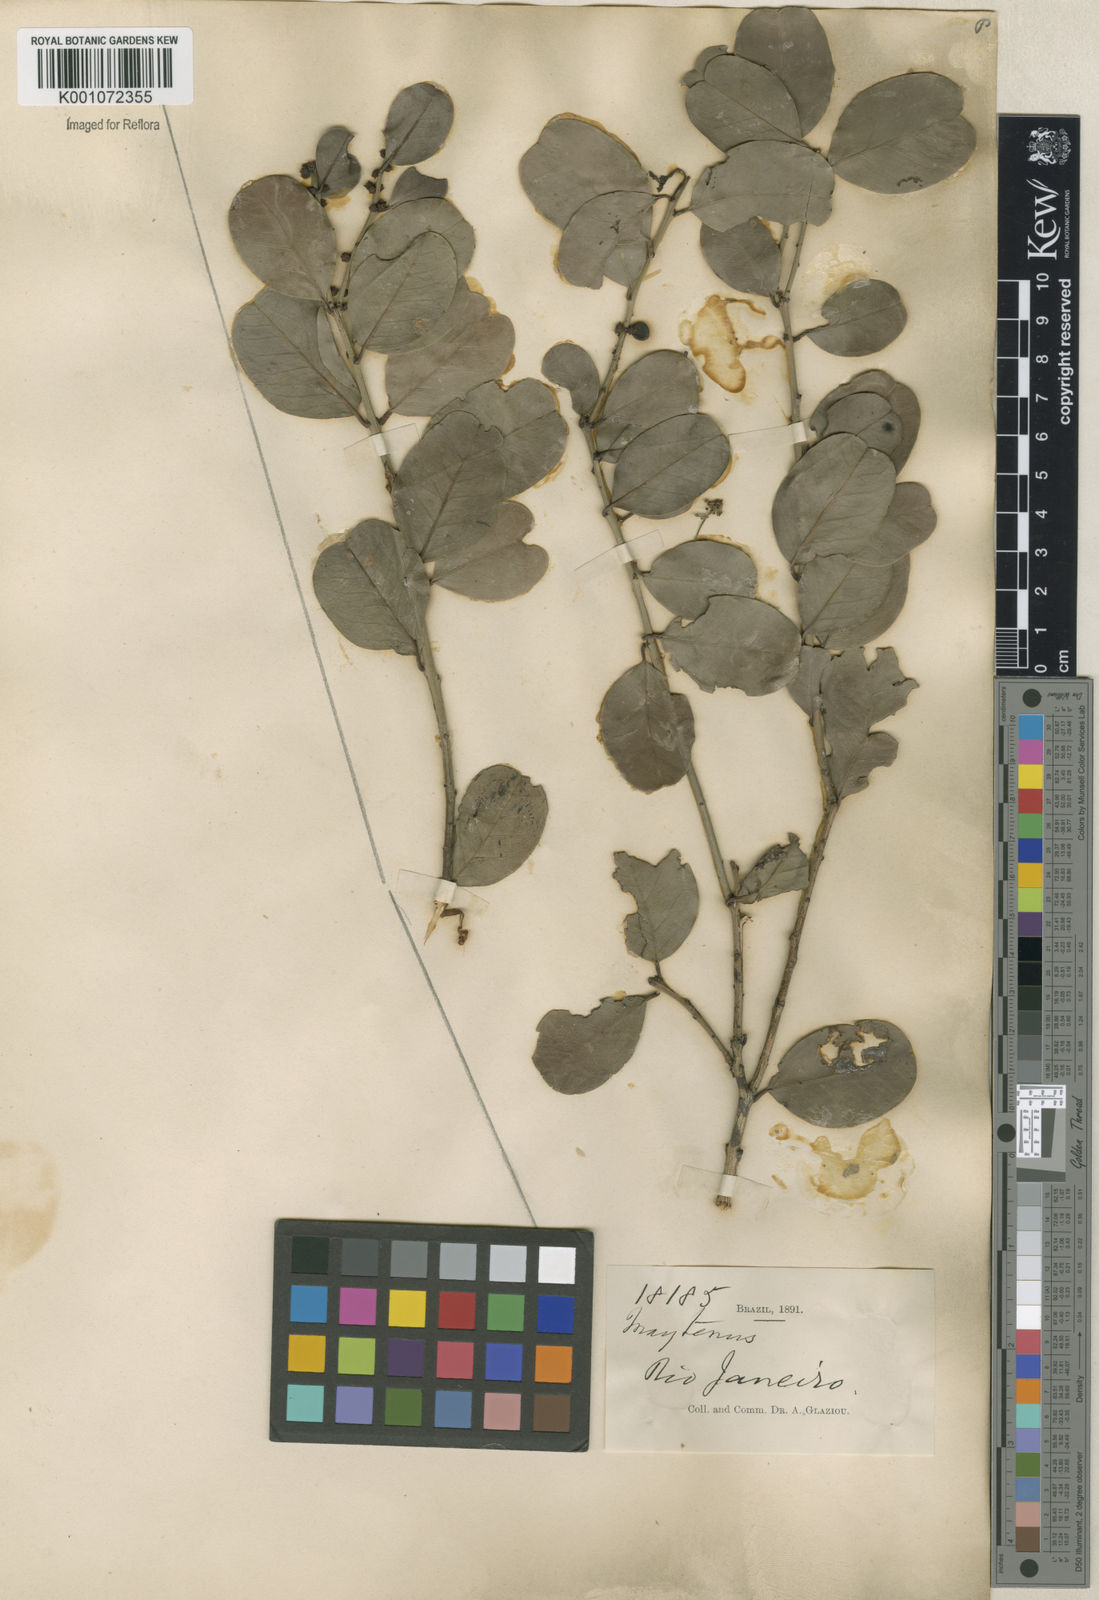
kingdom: Plantae
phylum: Tracheophyta
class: Magnoliopsida
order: Celastrales
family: Celastraceae
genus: Maytenus
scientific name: Maytenus
